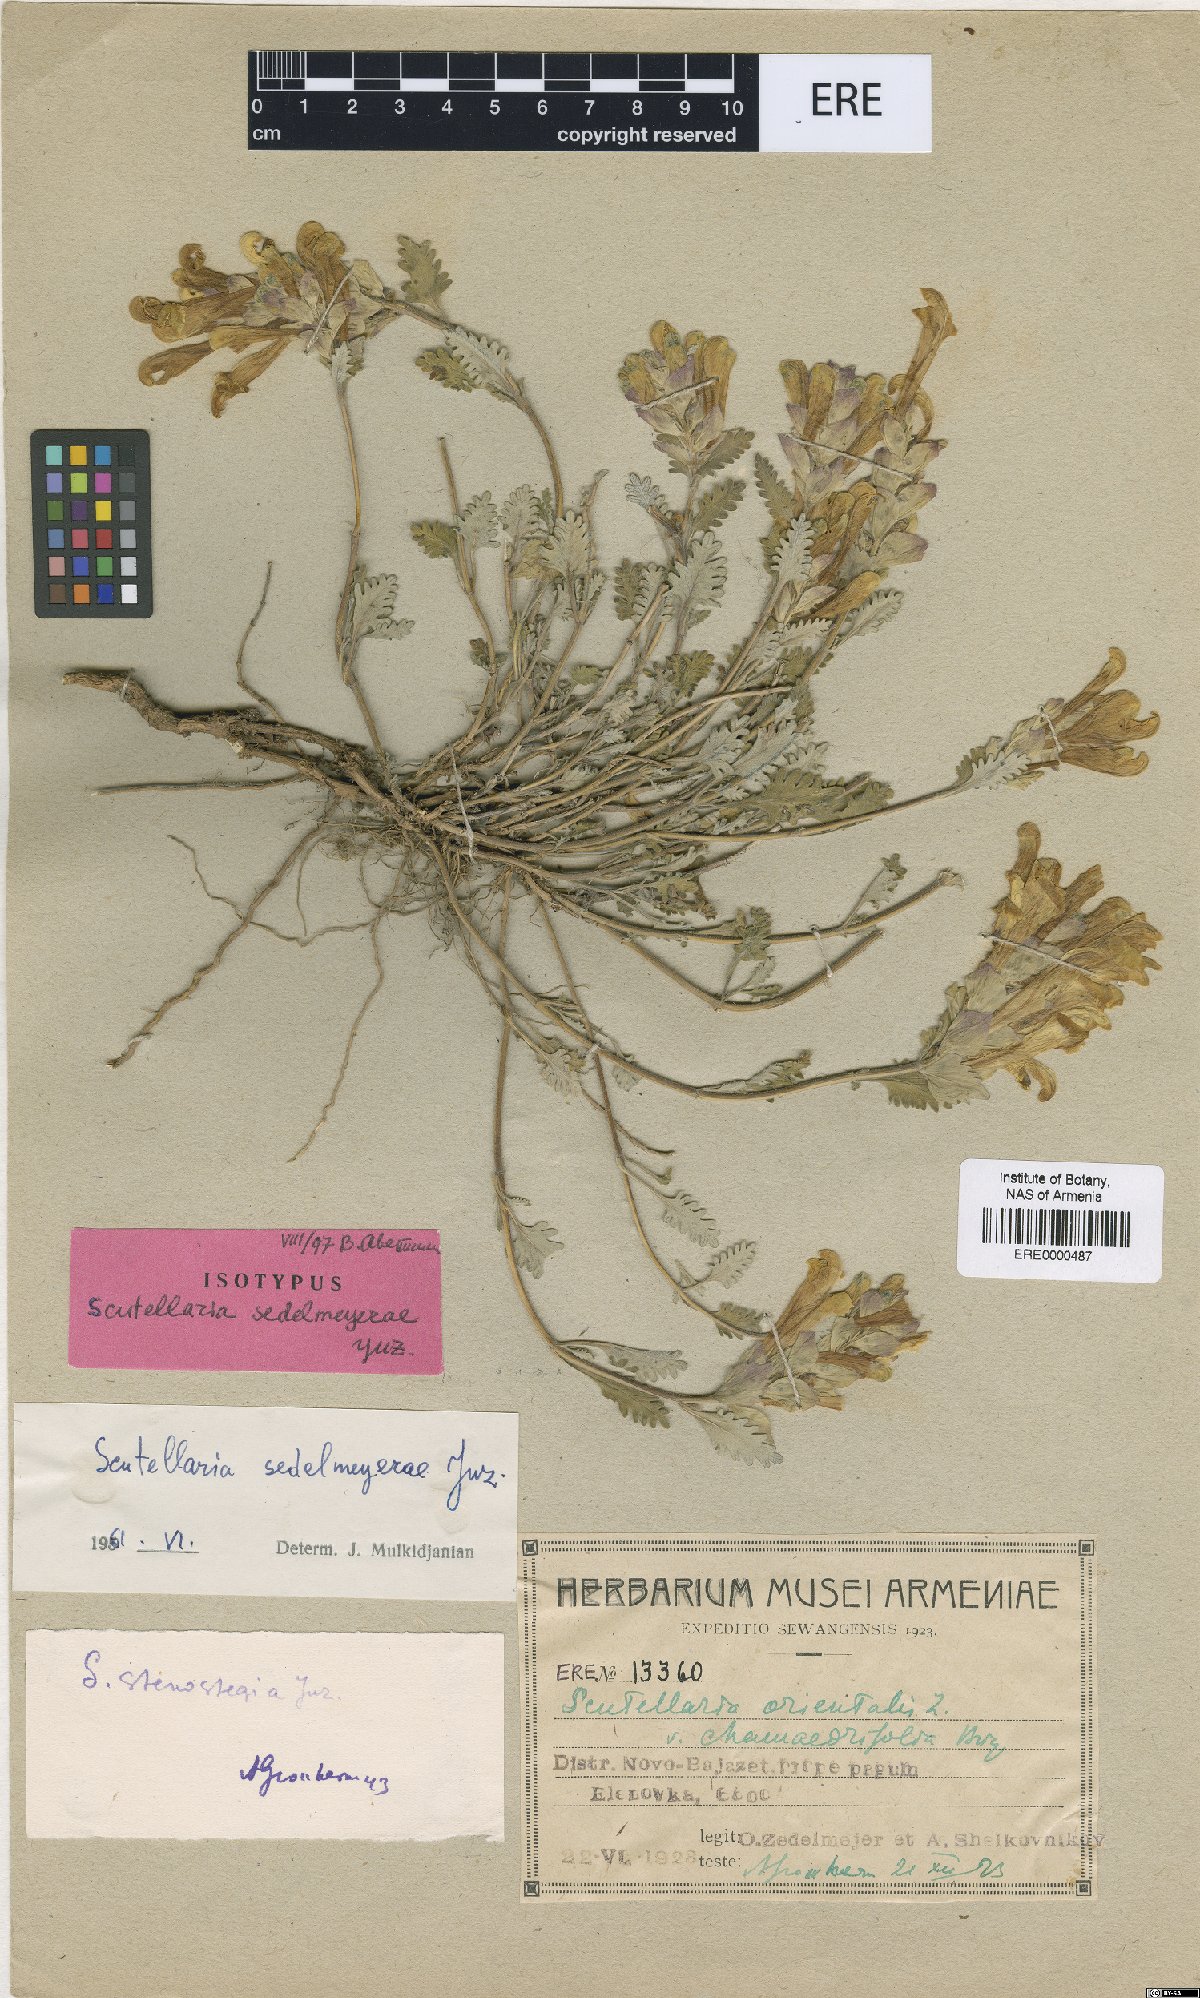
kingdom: Plantae
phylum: Tracheophyta
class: Magnoliopsida
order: Lamiales
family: Lamiaceae
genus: Scutellaria
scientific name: Scutellaria sedelmeyerae
